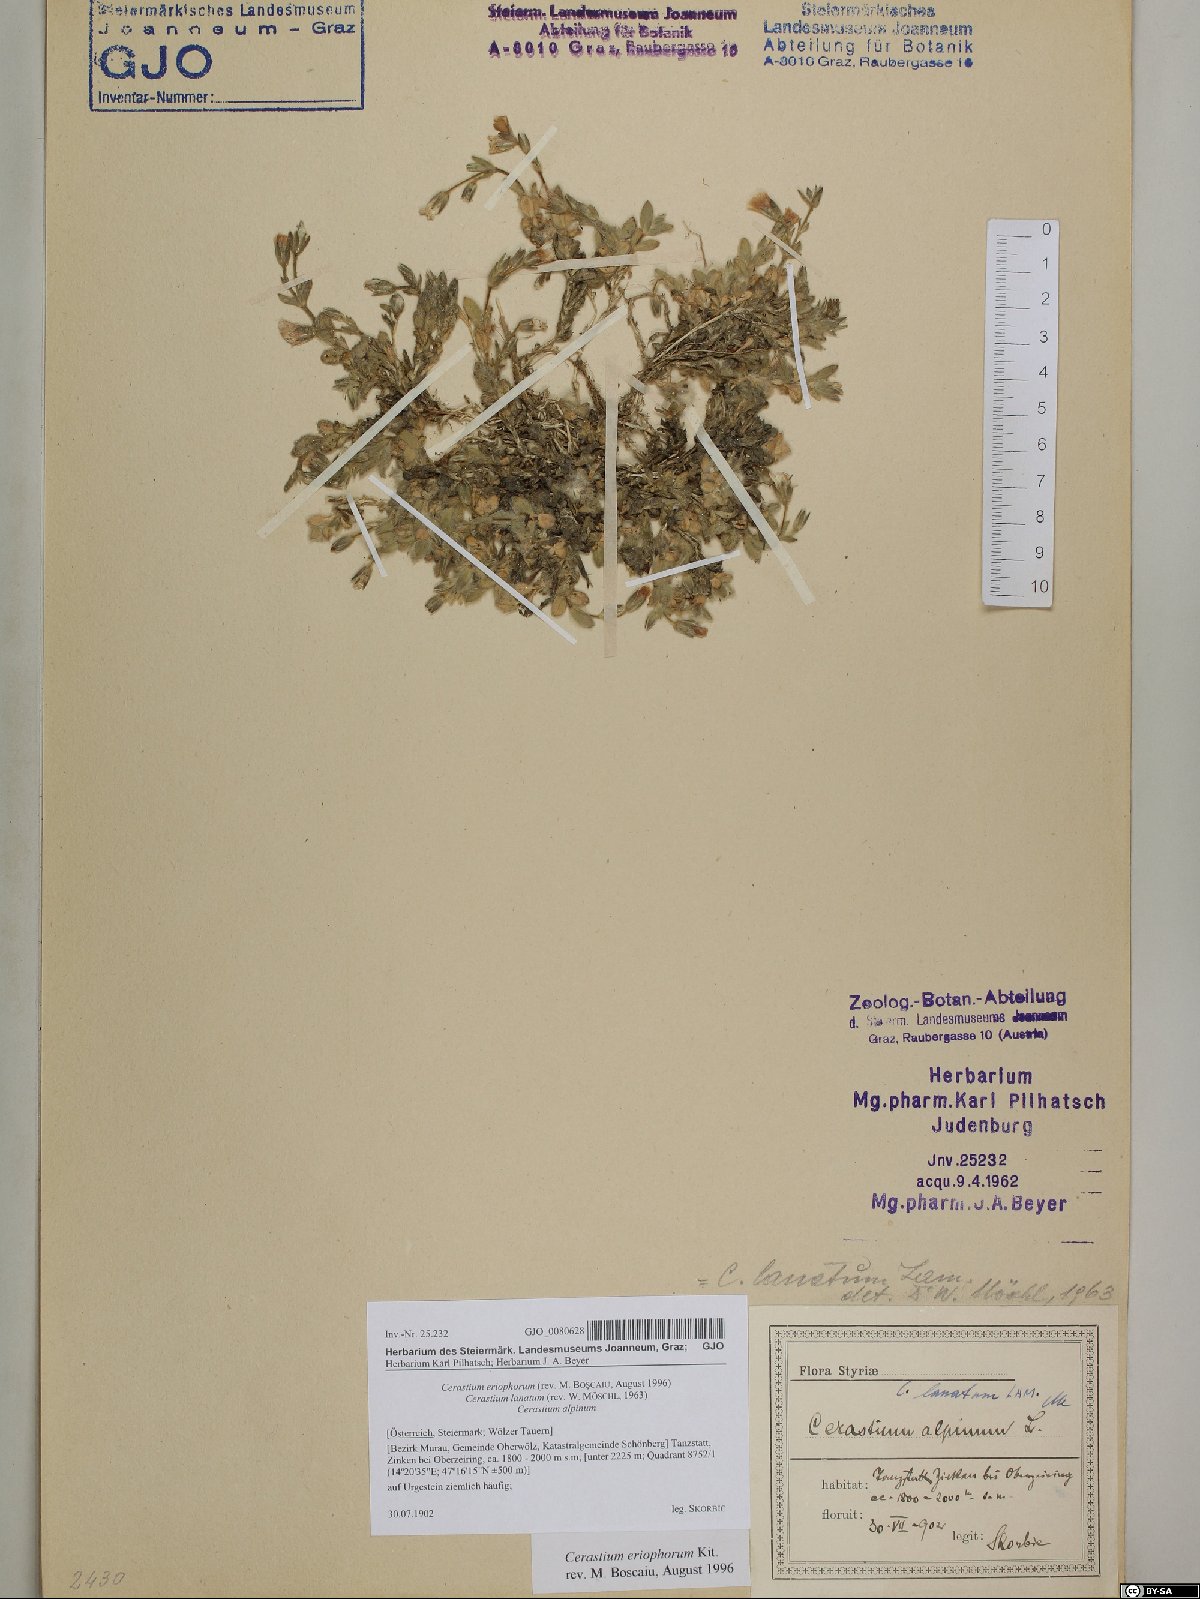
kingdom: Plantae
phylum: Tracheophyta
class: Magnoliopsida
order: Caryophyllales
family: Caryophyllaceae
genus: Cerastium
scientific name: Cerastium eriophorum
